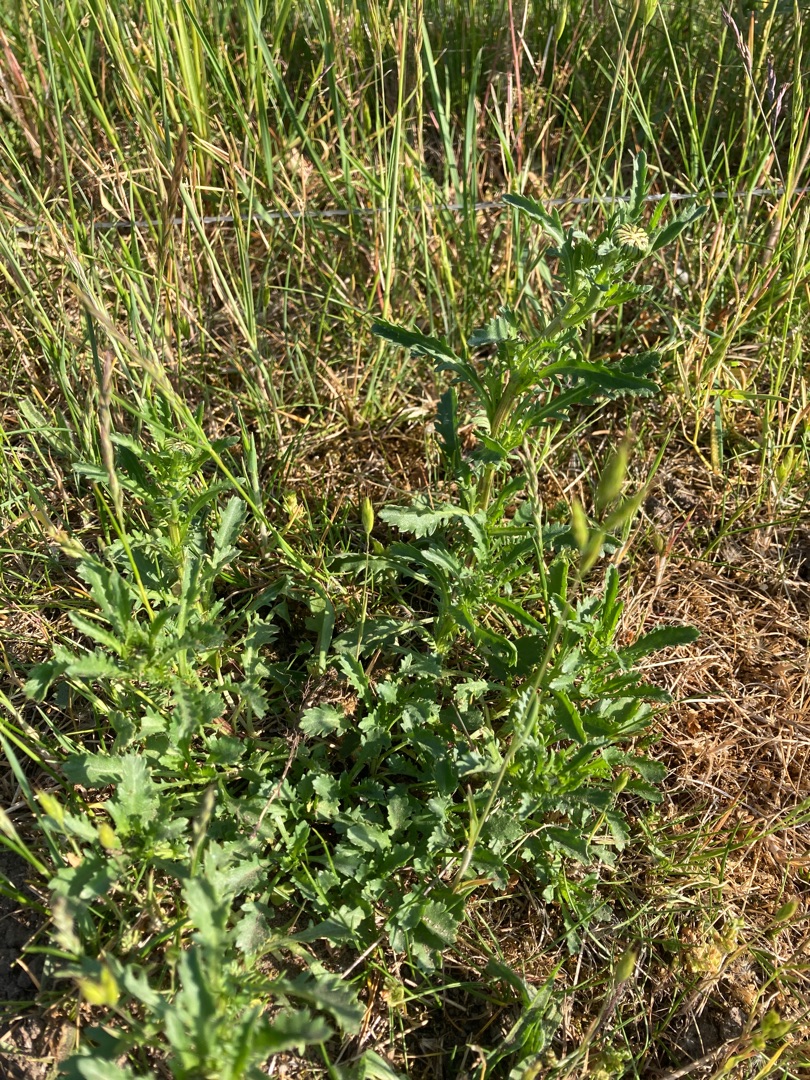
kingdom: Plantae
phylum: Tracheophyta
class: Magnoliopsida
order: Asterales
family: Asteraceae
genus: Leucanthemum
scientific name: Leucanthemum vulgare
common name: Hvid okseøje
